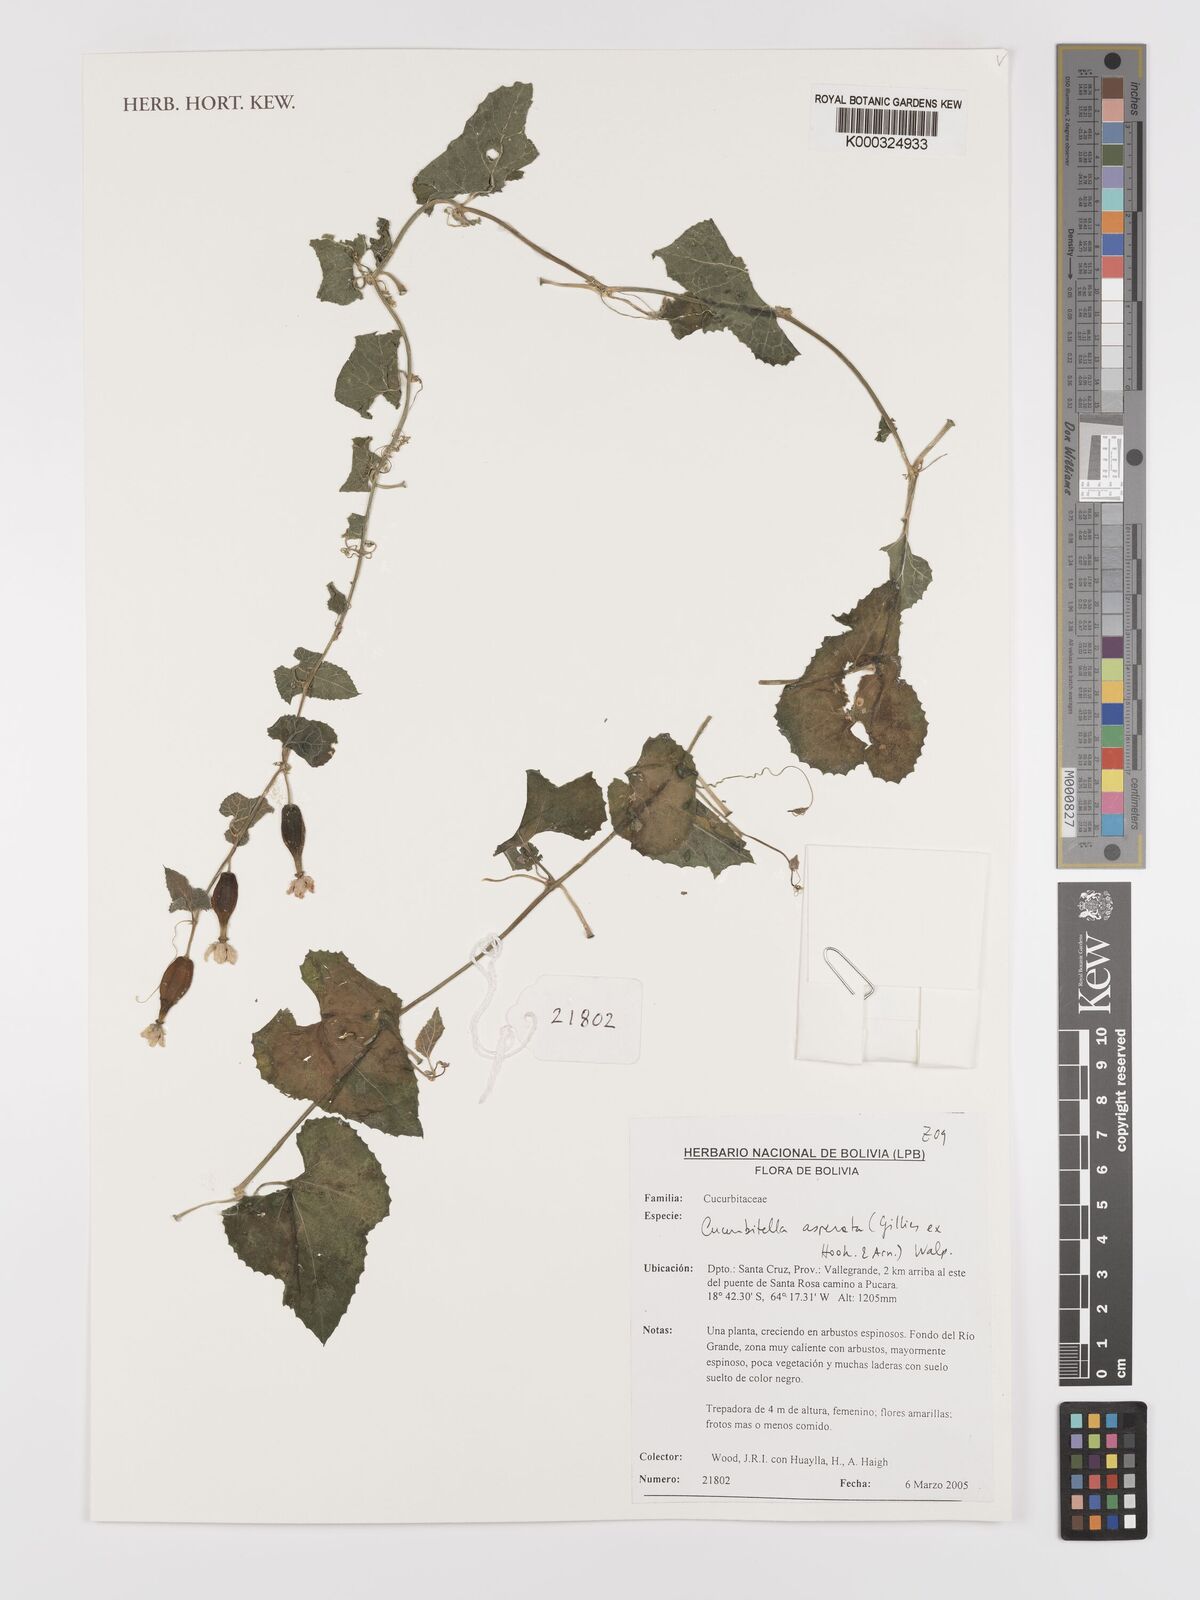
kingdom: Plantae
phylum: Tracheophyta
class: Magnoliopsida
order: Cucurbitales
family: Cucurbitaceae
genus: Cucurbitella
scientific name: Cucurbitella asperata
